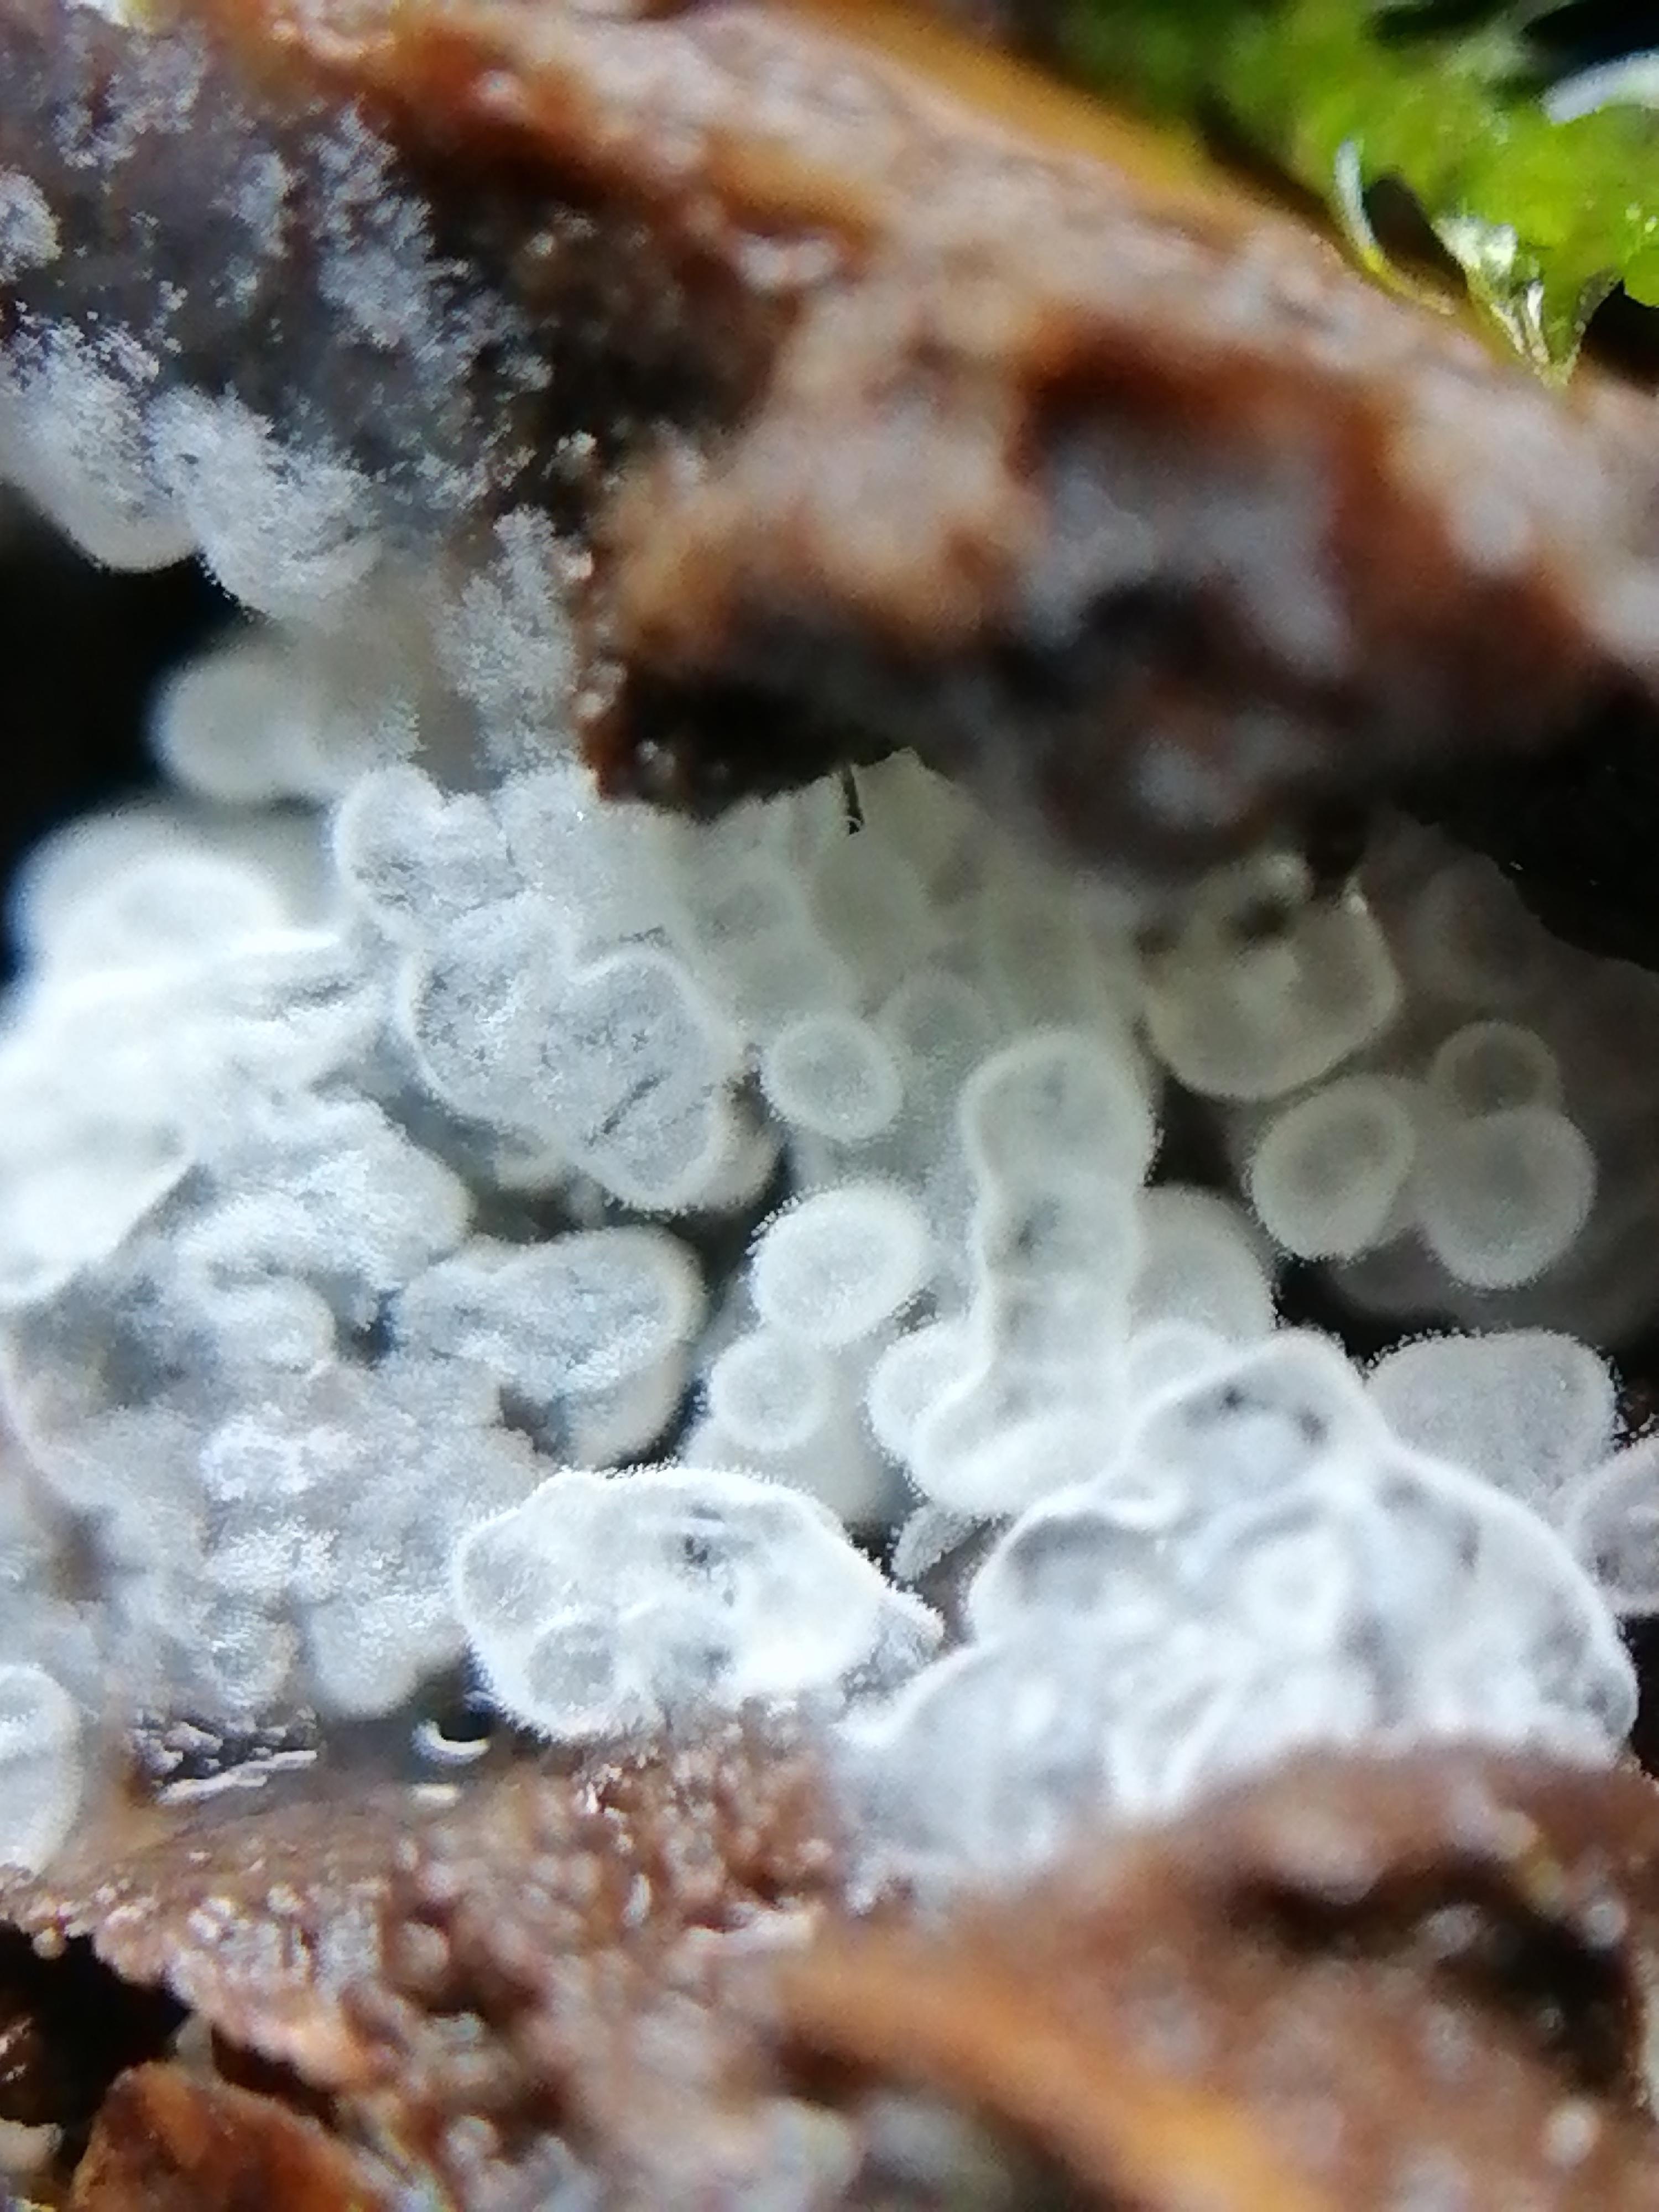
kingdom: Protozoa
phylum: Mycetozoa
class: Protosteliomycetes
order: Ceratiomyxales
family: Ceratiomyxaceae
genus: Ceratiomyxa
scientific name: Ceratiomyxa fruticulosa
